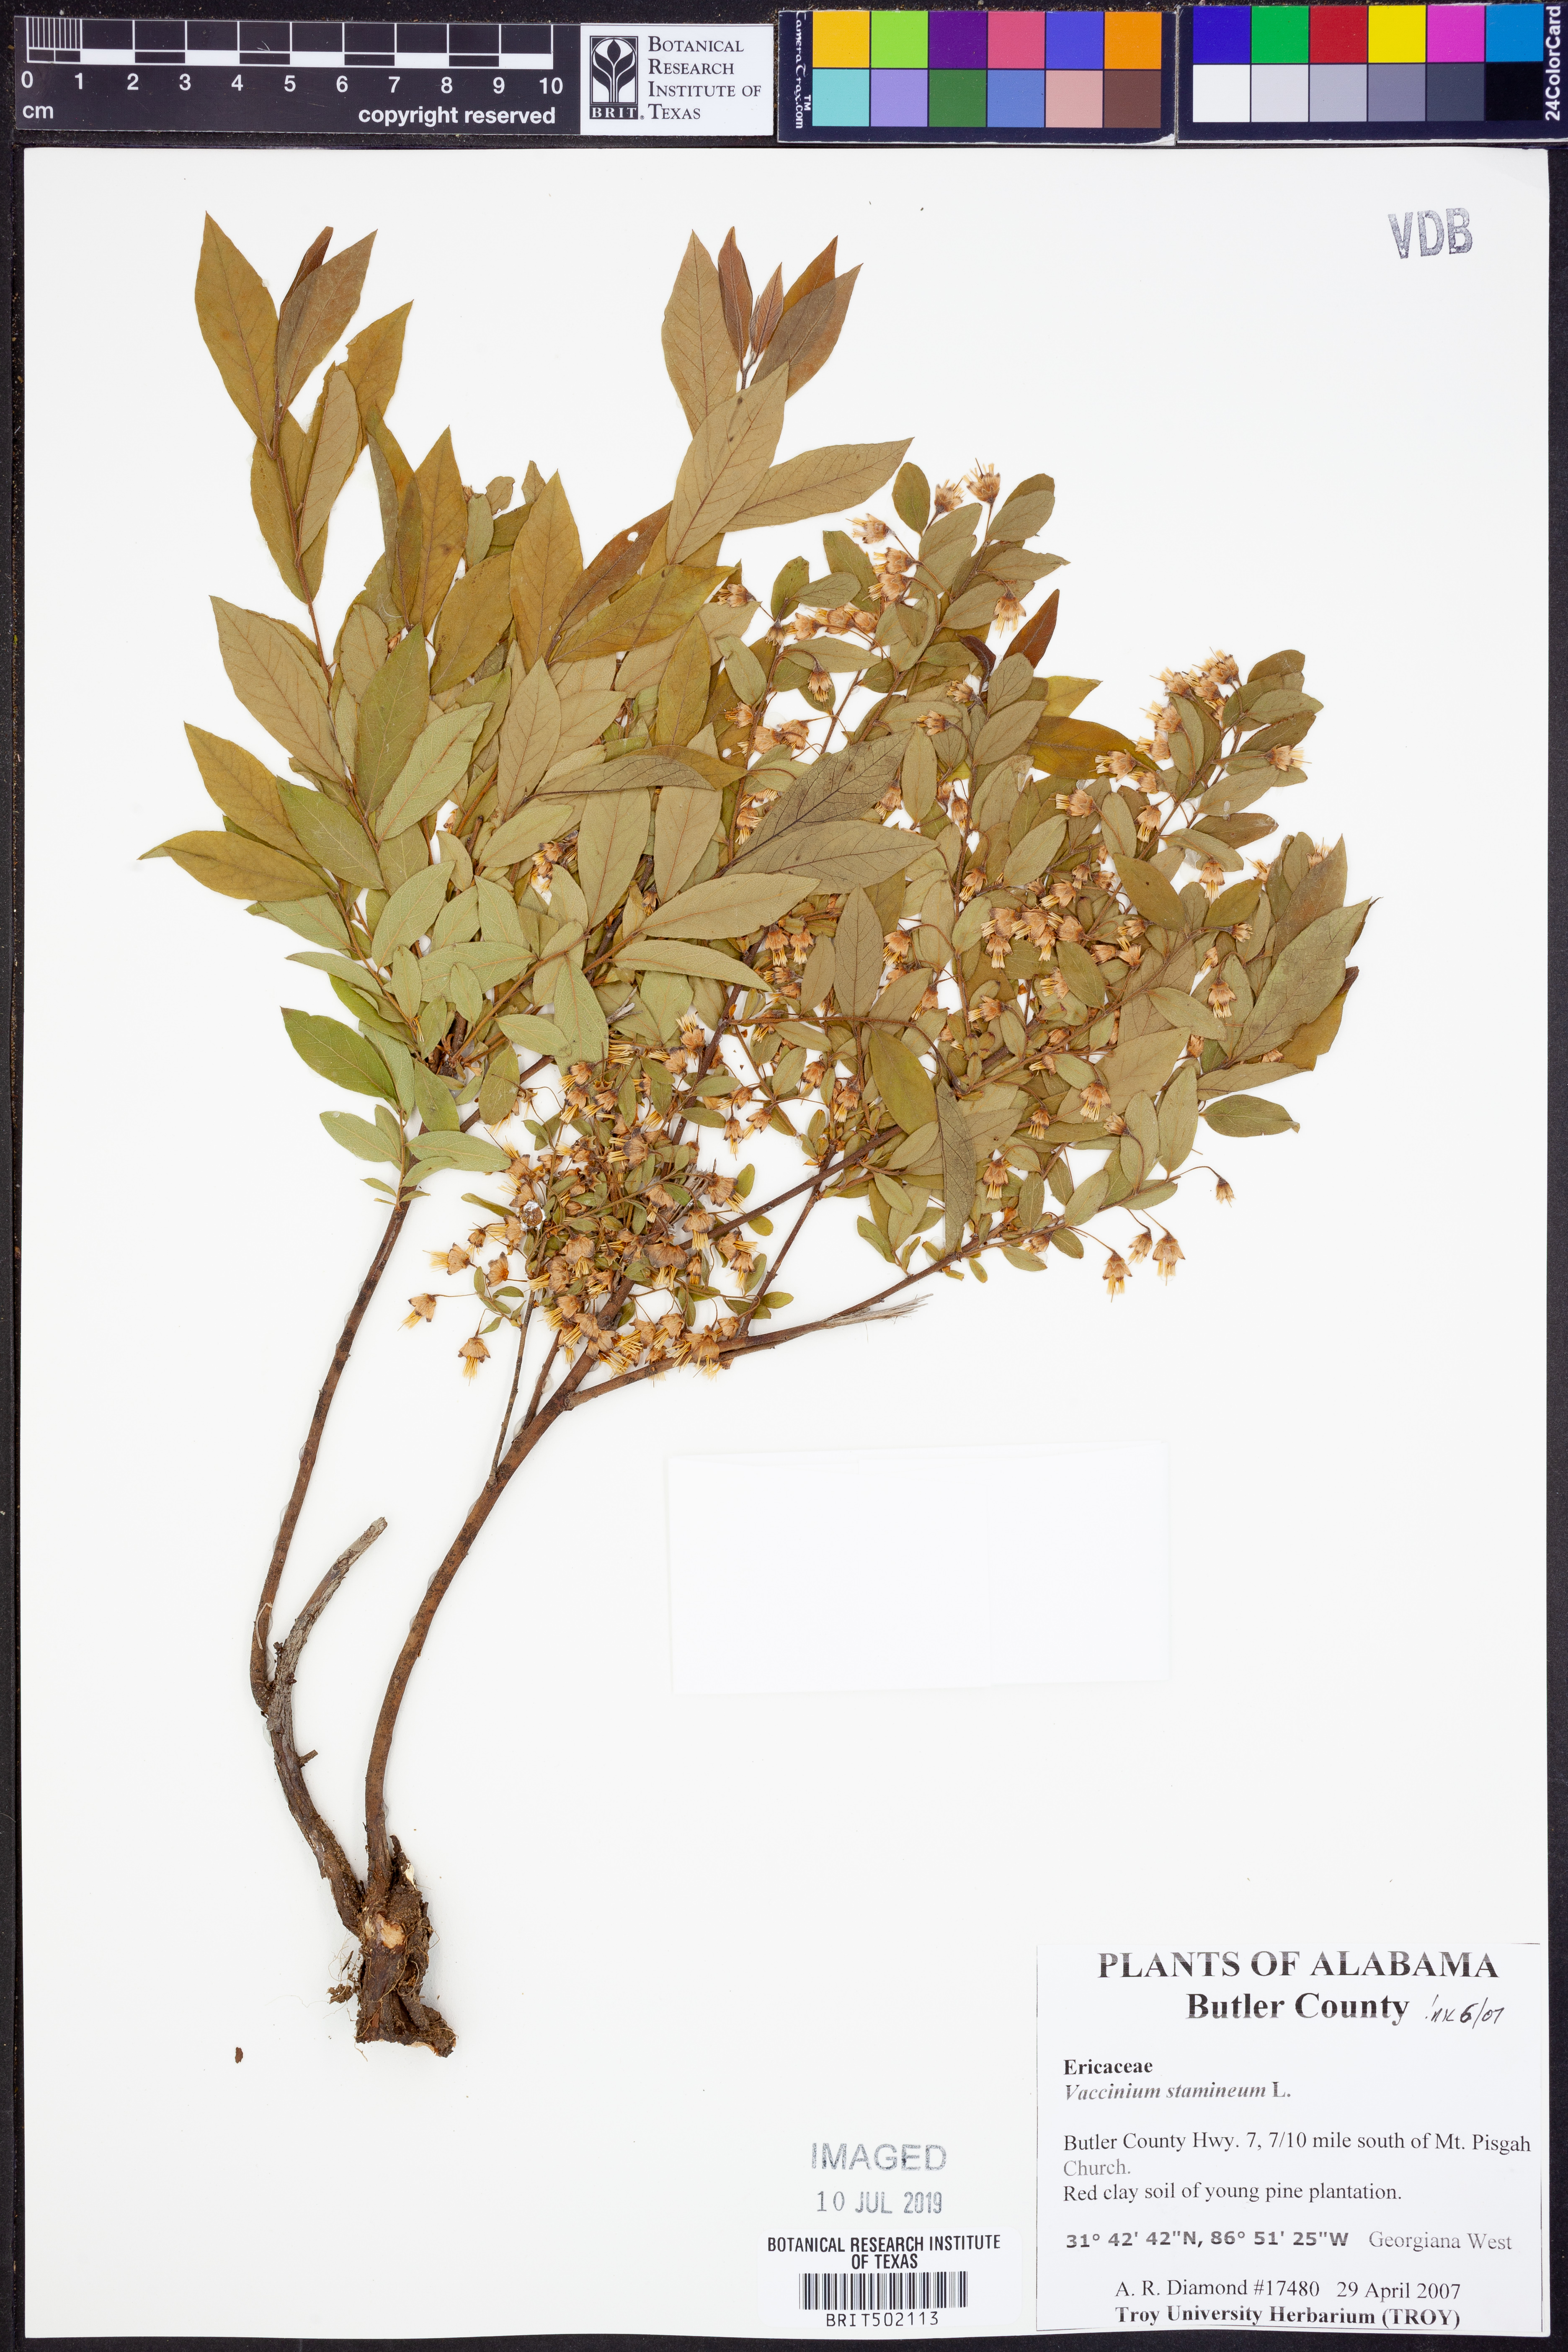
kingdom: Plantae
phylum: Tracheophyta
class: Magnoliopsida
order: Ericales
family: Ericaceae
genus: Vaccinium
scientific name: Vaccinium stamineum
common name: Deerberry
